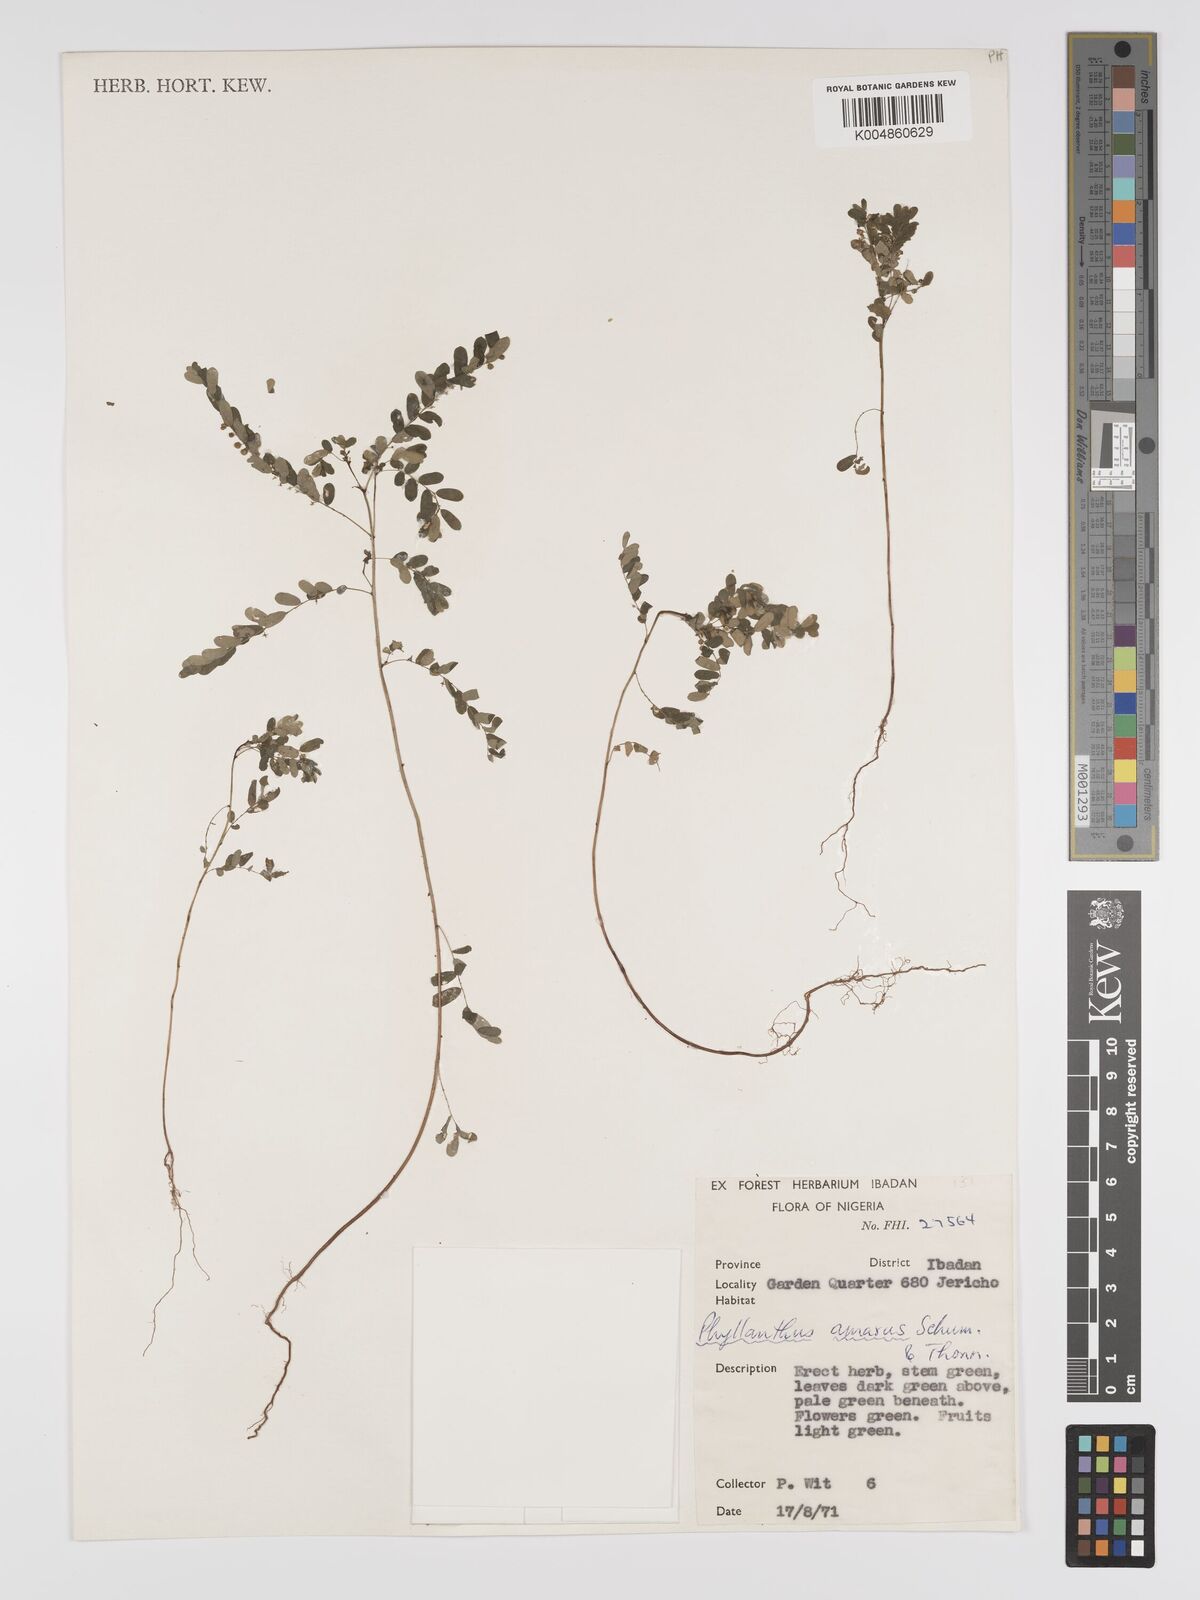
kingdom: Plantae
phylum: Tracheophyta
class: Magnoliopsida
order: Malpighiales
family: Phyllanthaceae
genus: Phyllanthus
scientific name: Phyllanthus amarus
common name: Carry me seed
